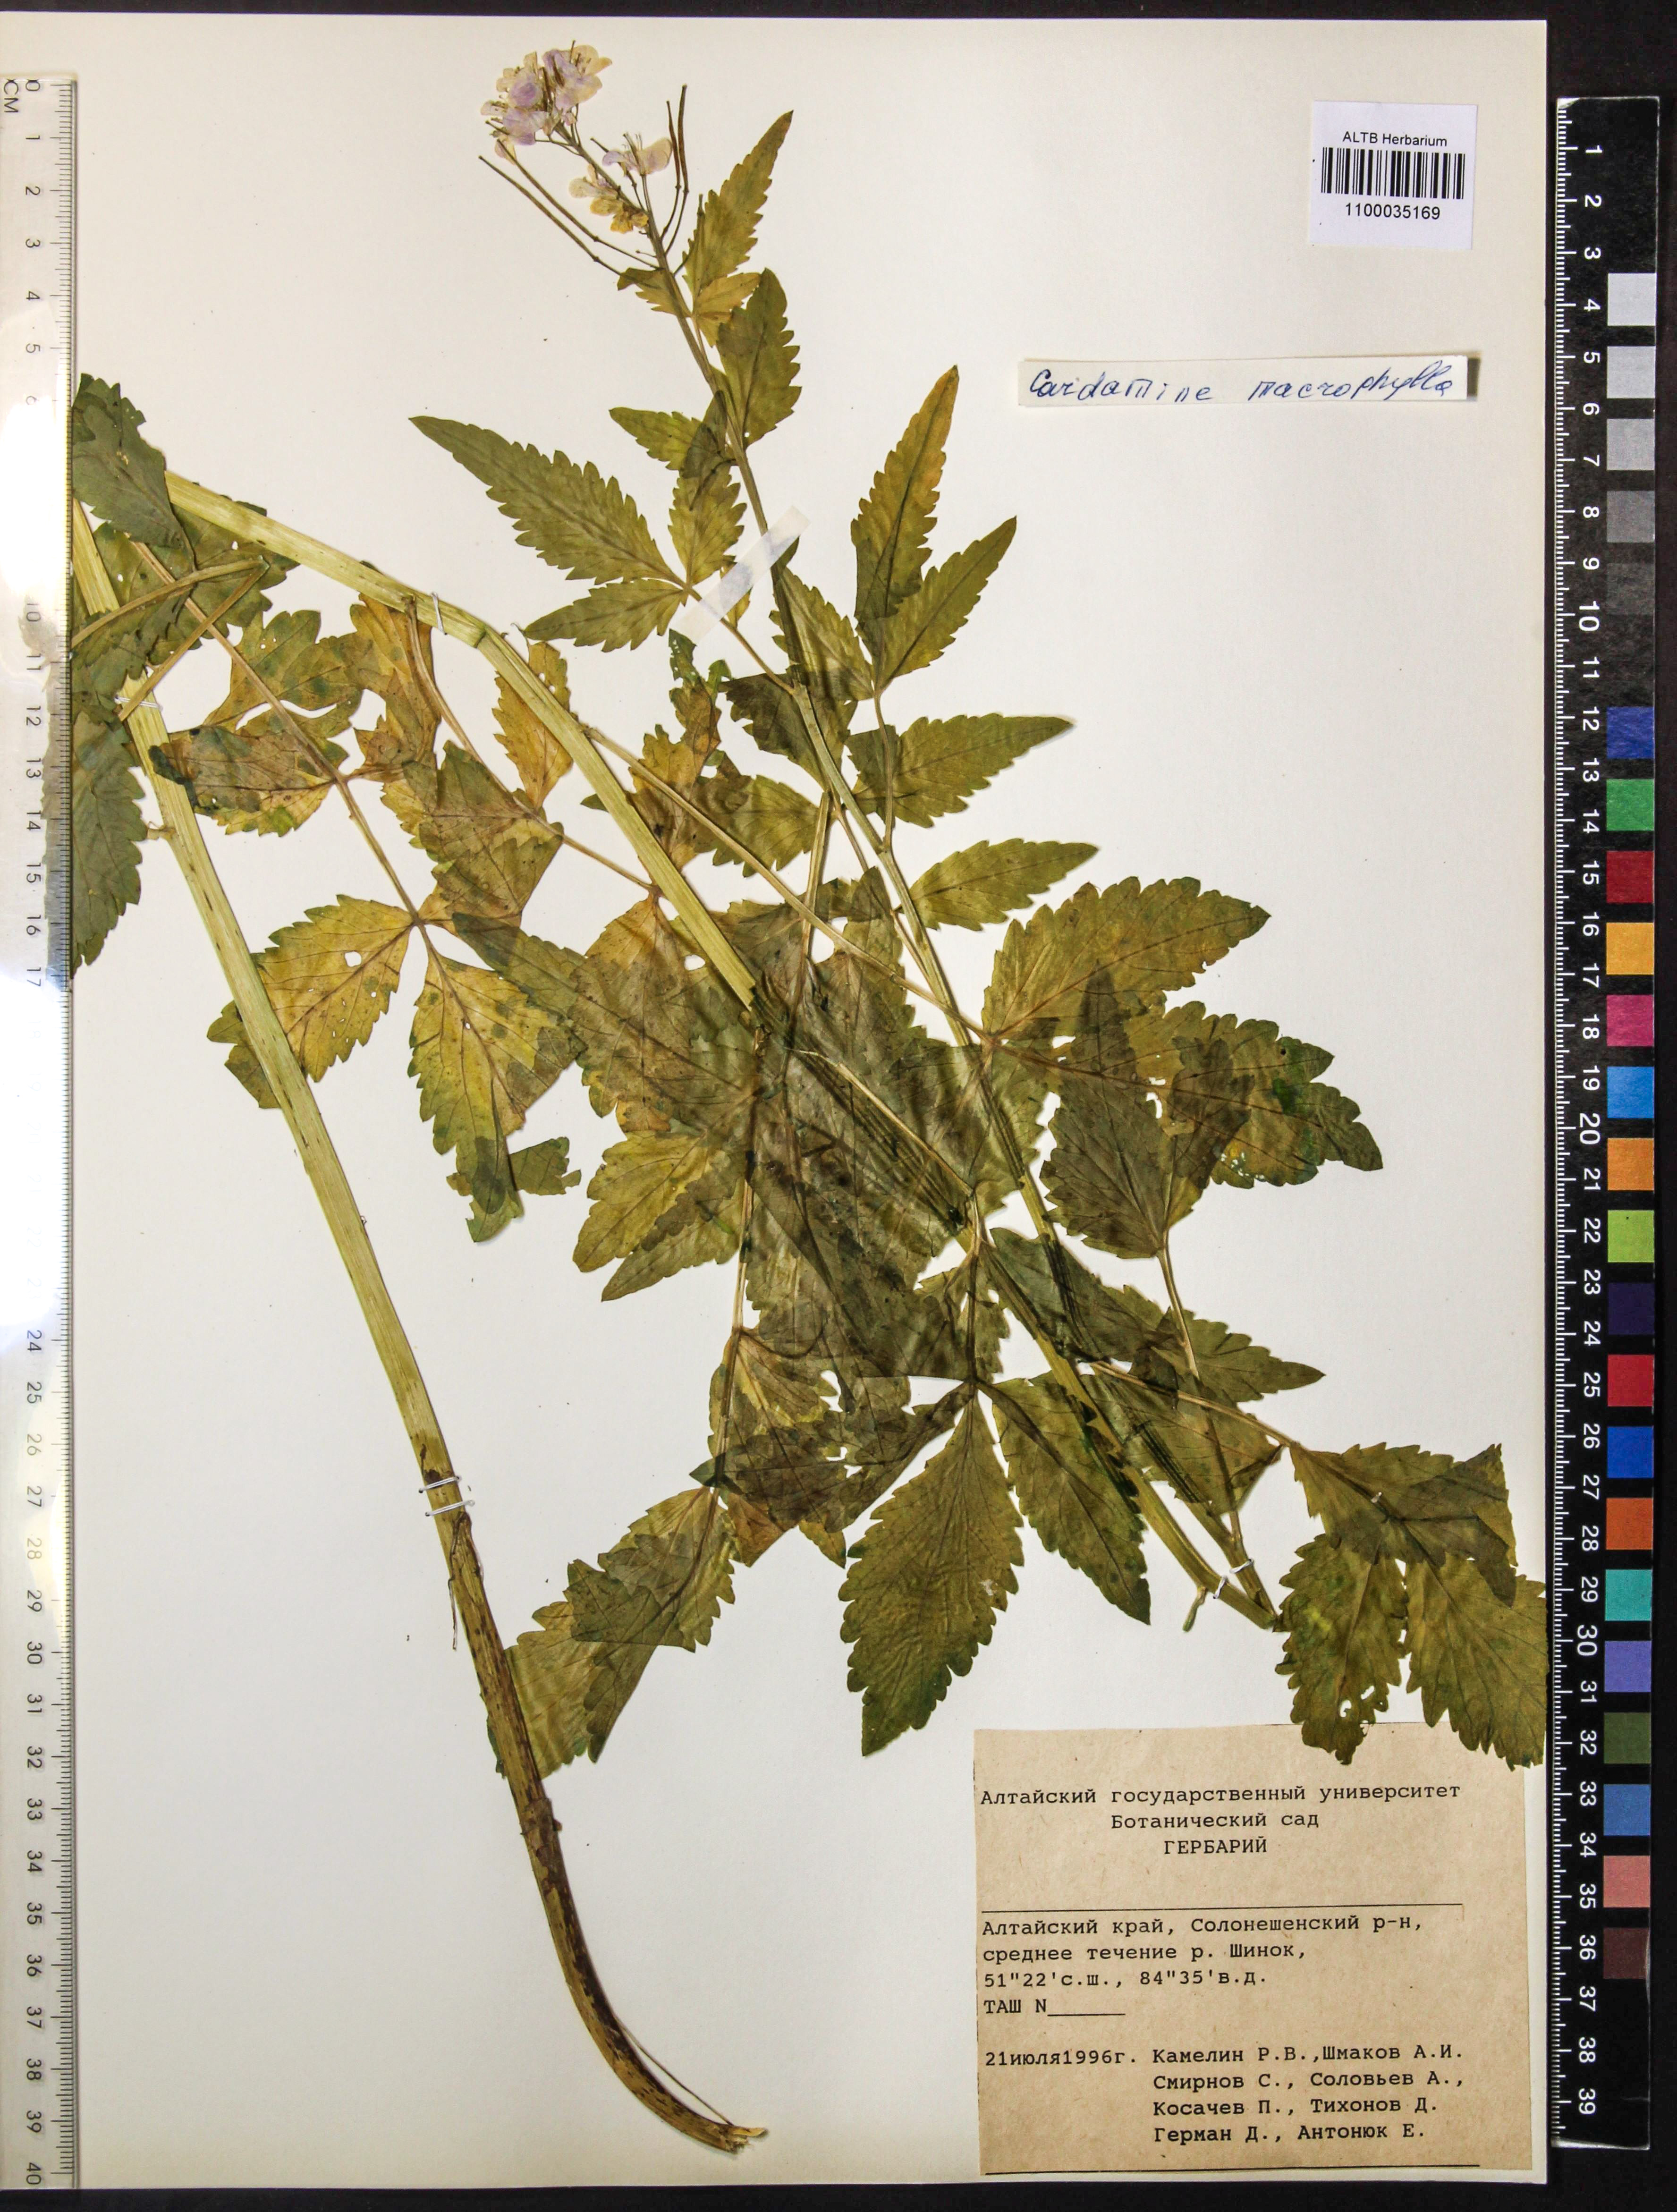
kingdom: Plantae
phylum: Tracheophyta
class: Magnoliopsida
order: Brassicales
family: Brassicaceae
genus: Cardamine
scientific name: Cardamine macrophylla
